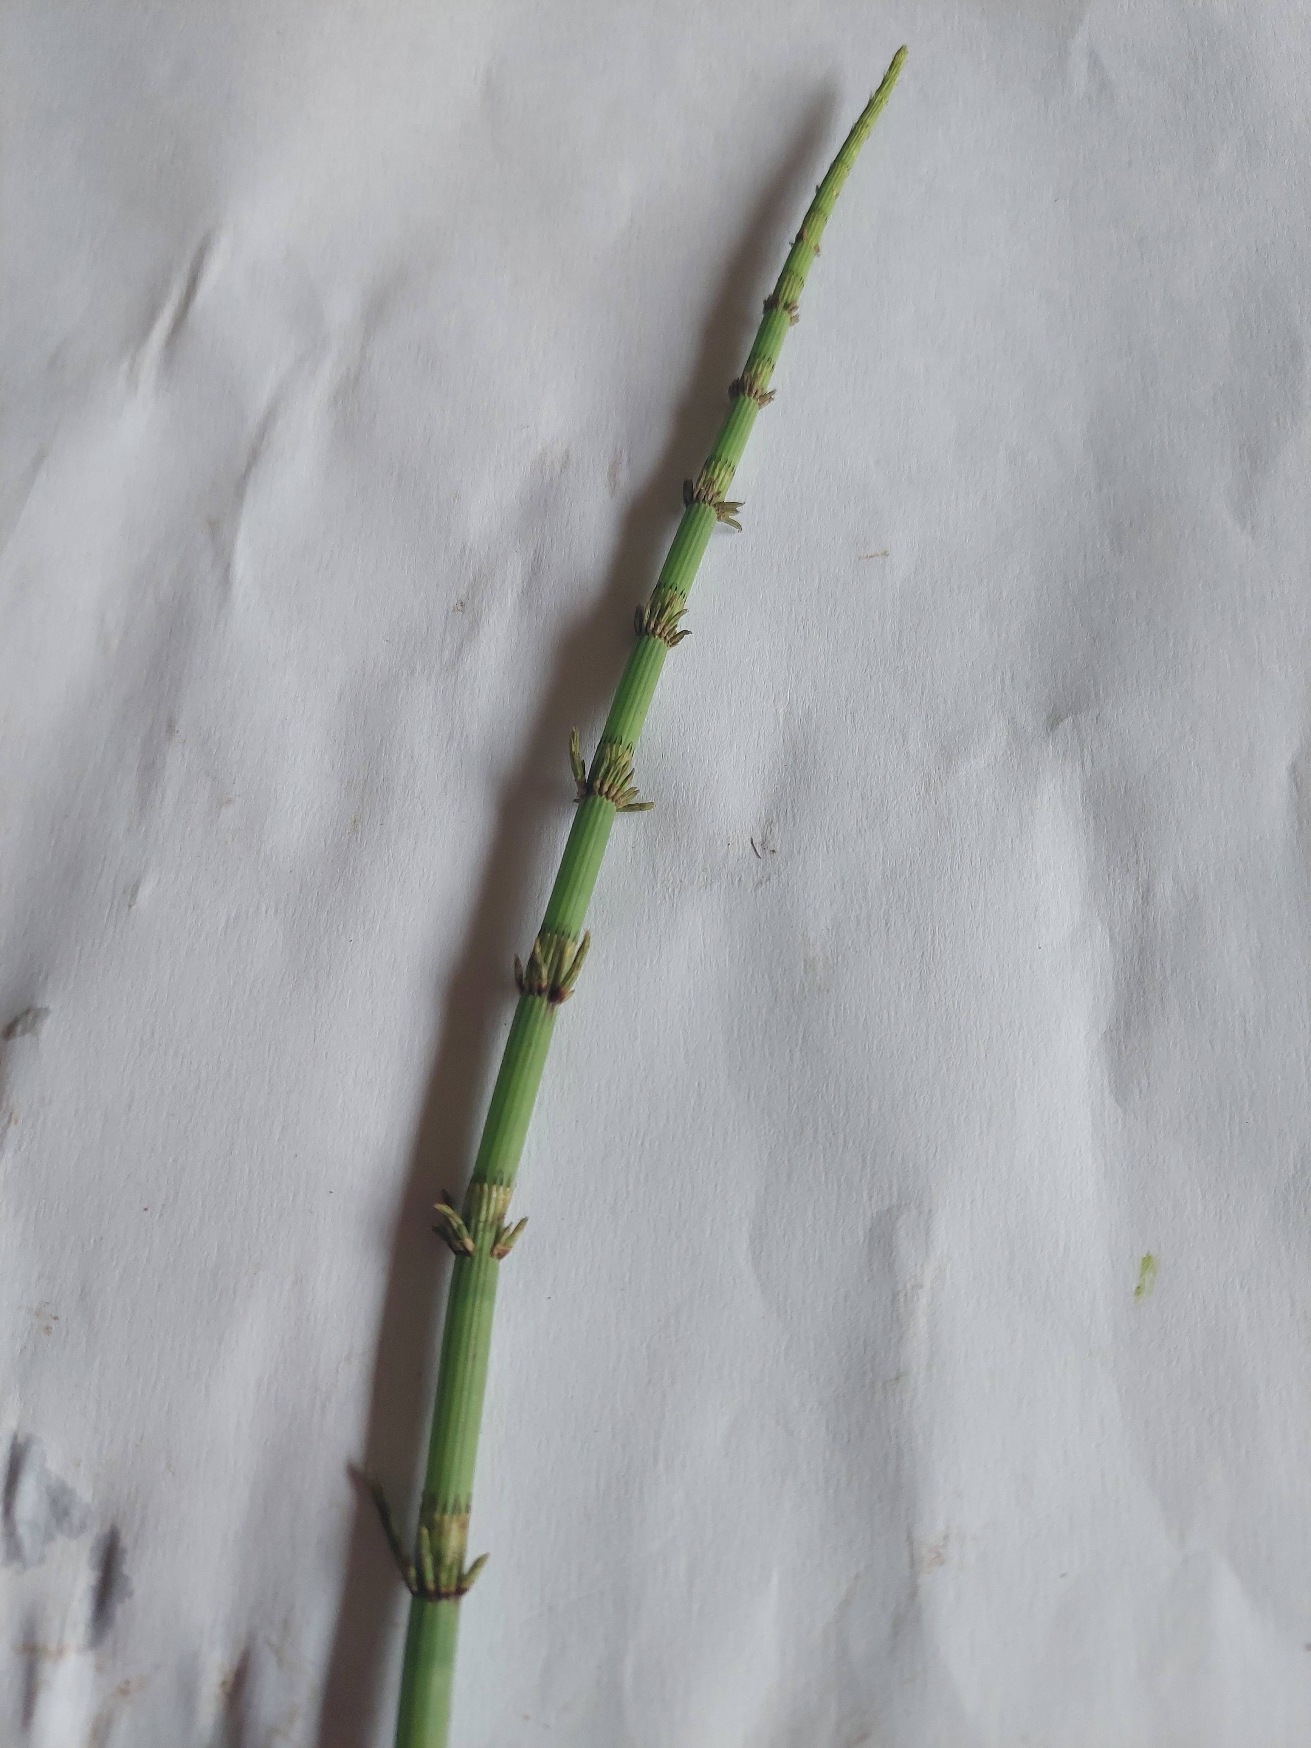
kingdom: Plantae
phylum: Tracheophyta
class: Polypodiopsida
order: Equisetales
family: Equisetaceae
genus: Equisetum
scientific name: Equisetum fluviatile
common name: Dynd-padderok
